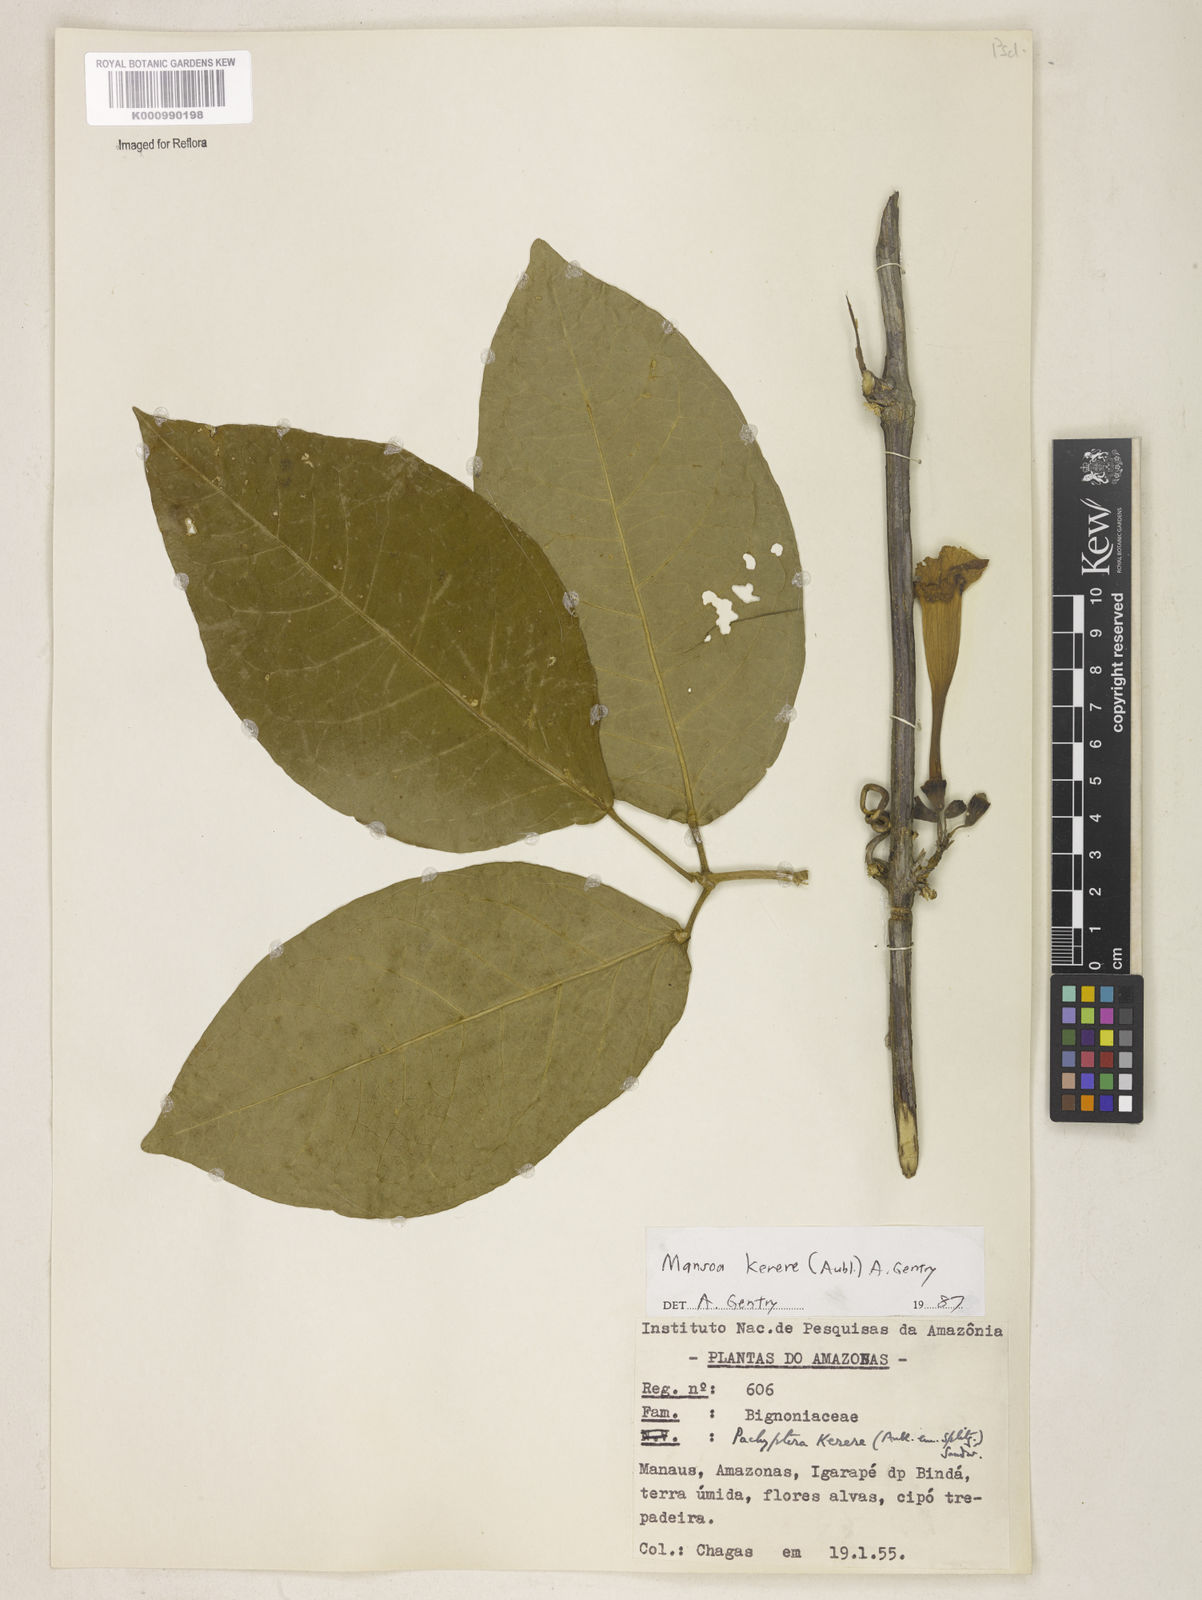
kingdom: Plantae
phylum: Tracheophyta
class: Magnoliopsida
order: Lamiales
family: Bignoniaceae
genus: Pachyptera
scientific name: Pachyptera kerere
